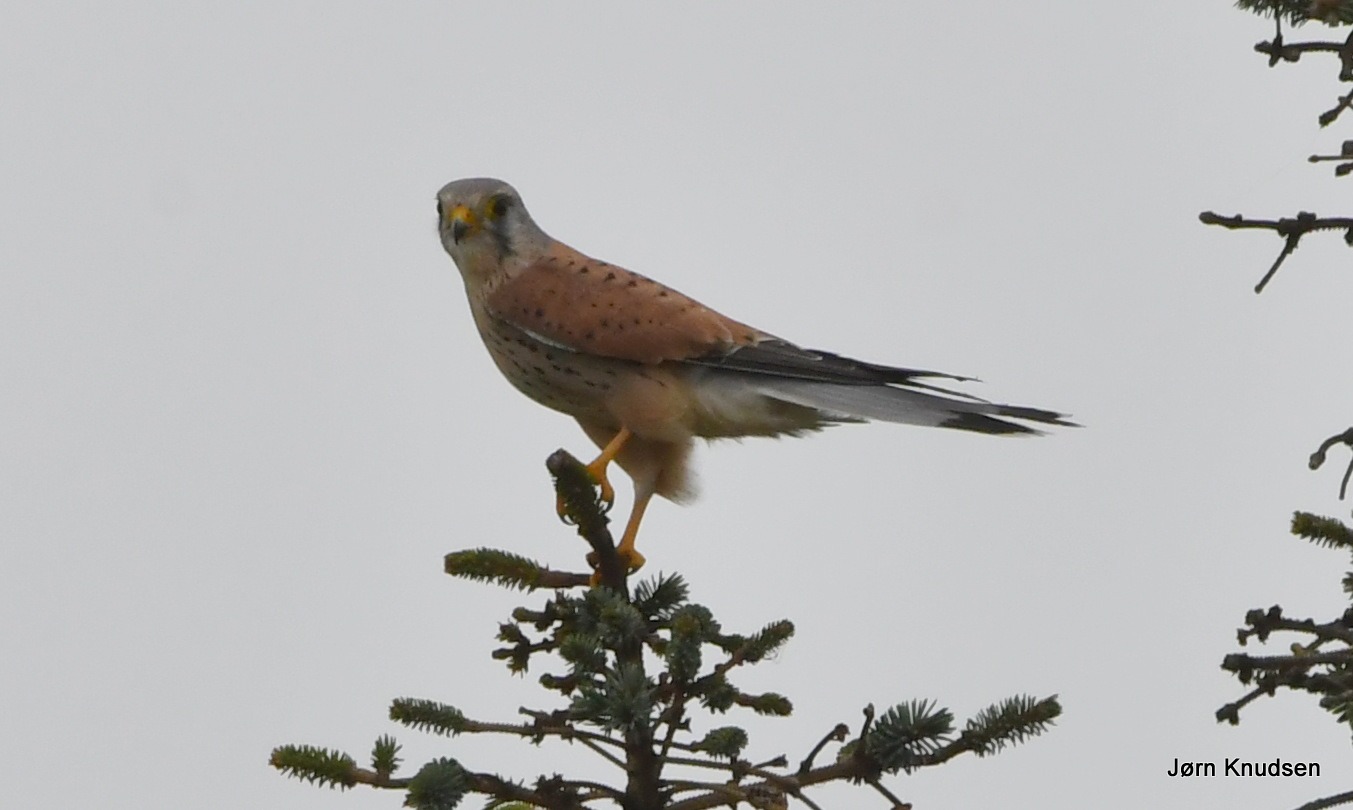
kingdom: Animalia
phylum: Chordata
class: Aves
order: Falconiformes
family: Falconidae
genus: Falco
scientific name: Falco tinnunculus
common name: Tårnfalk
